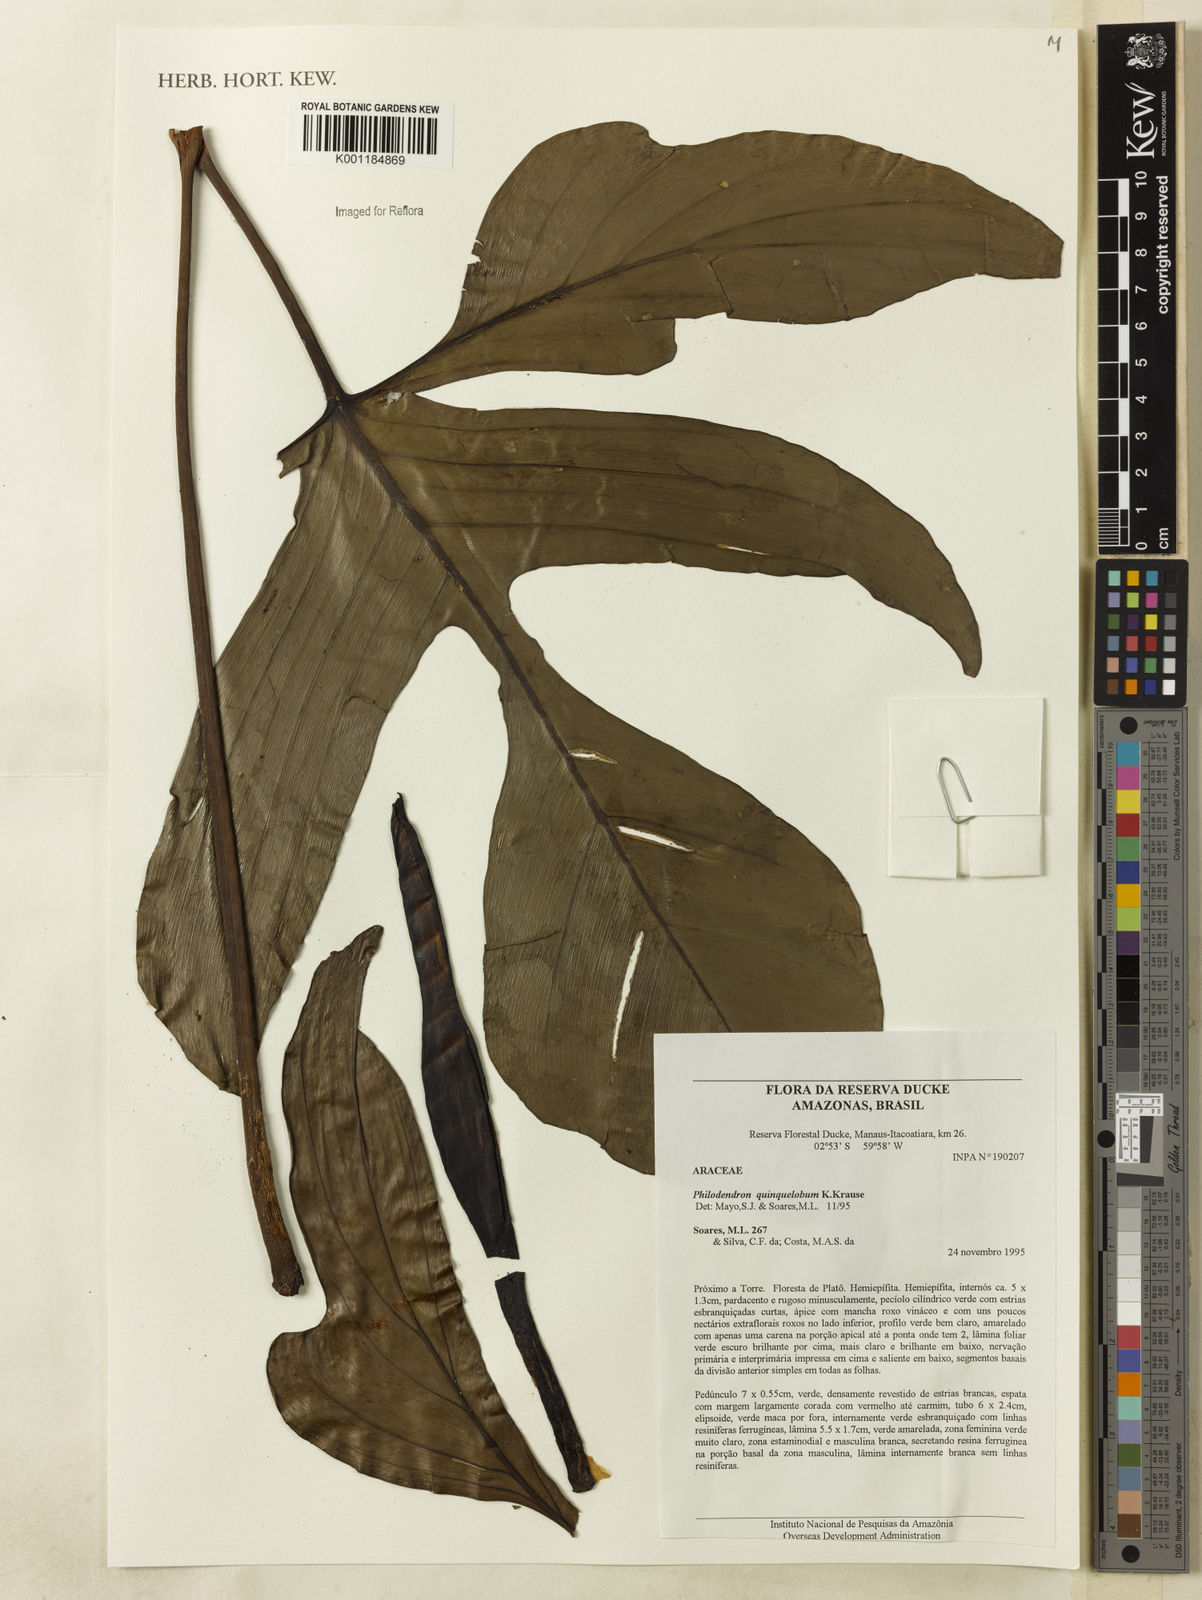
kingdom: Plantae
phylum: Tracheophyta
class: Liliopsida
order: Alismatales
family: Araceae
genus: Philodendron
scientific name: Philodendron quinquelobum
